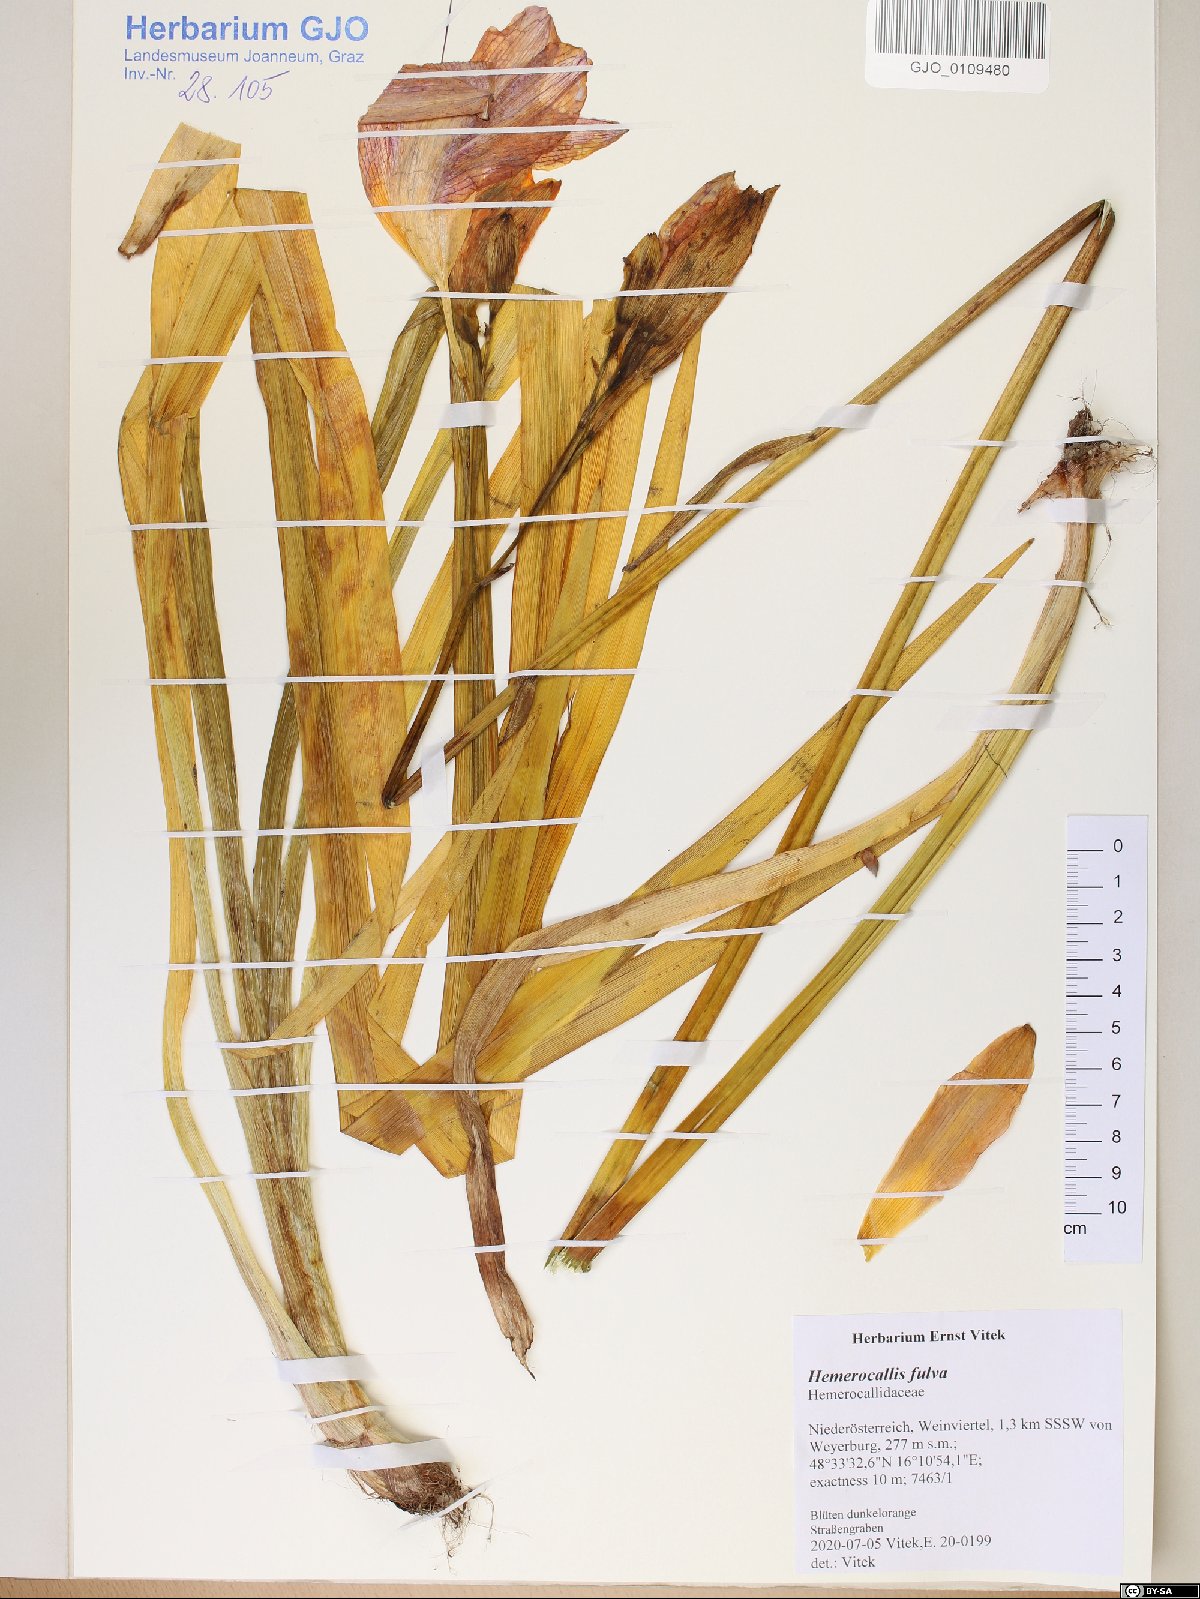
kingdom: Plantae
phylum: Tracheophyta
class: Liliopsida
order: Asparagales
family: Asphodelaceae
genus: Hemerocallis
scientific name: Hemerocallis fulva
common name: Orange day-lily
